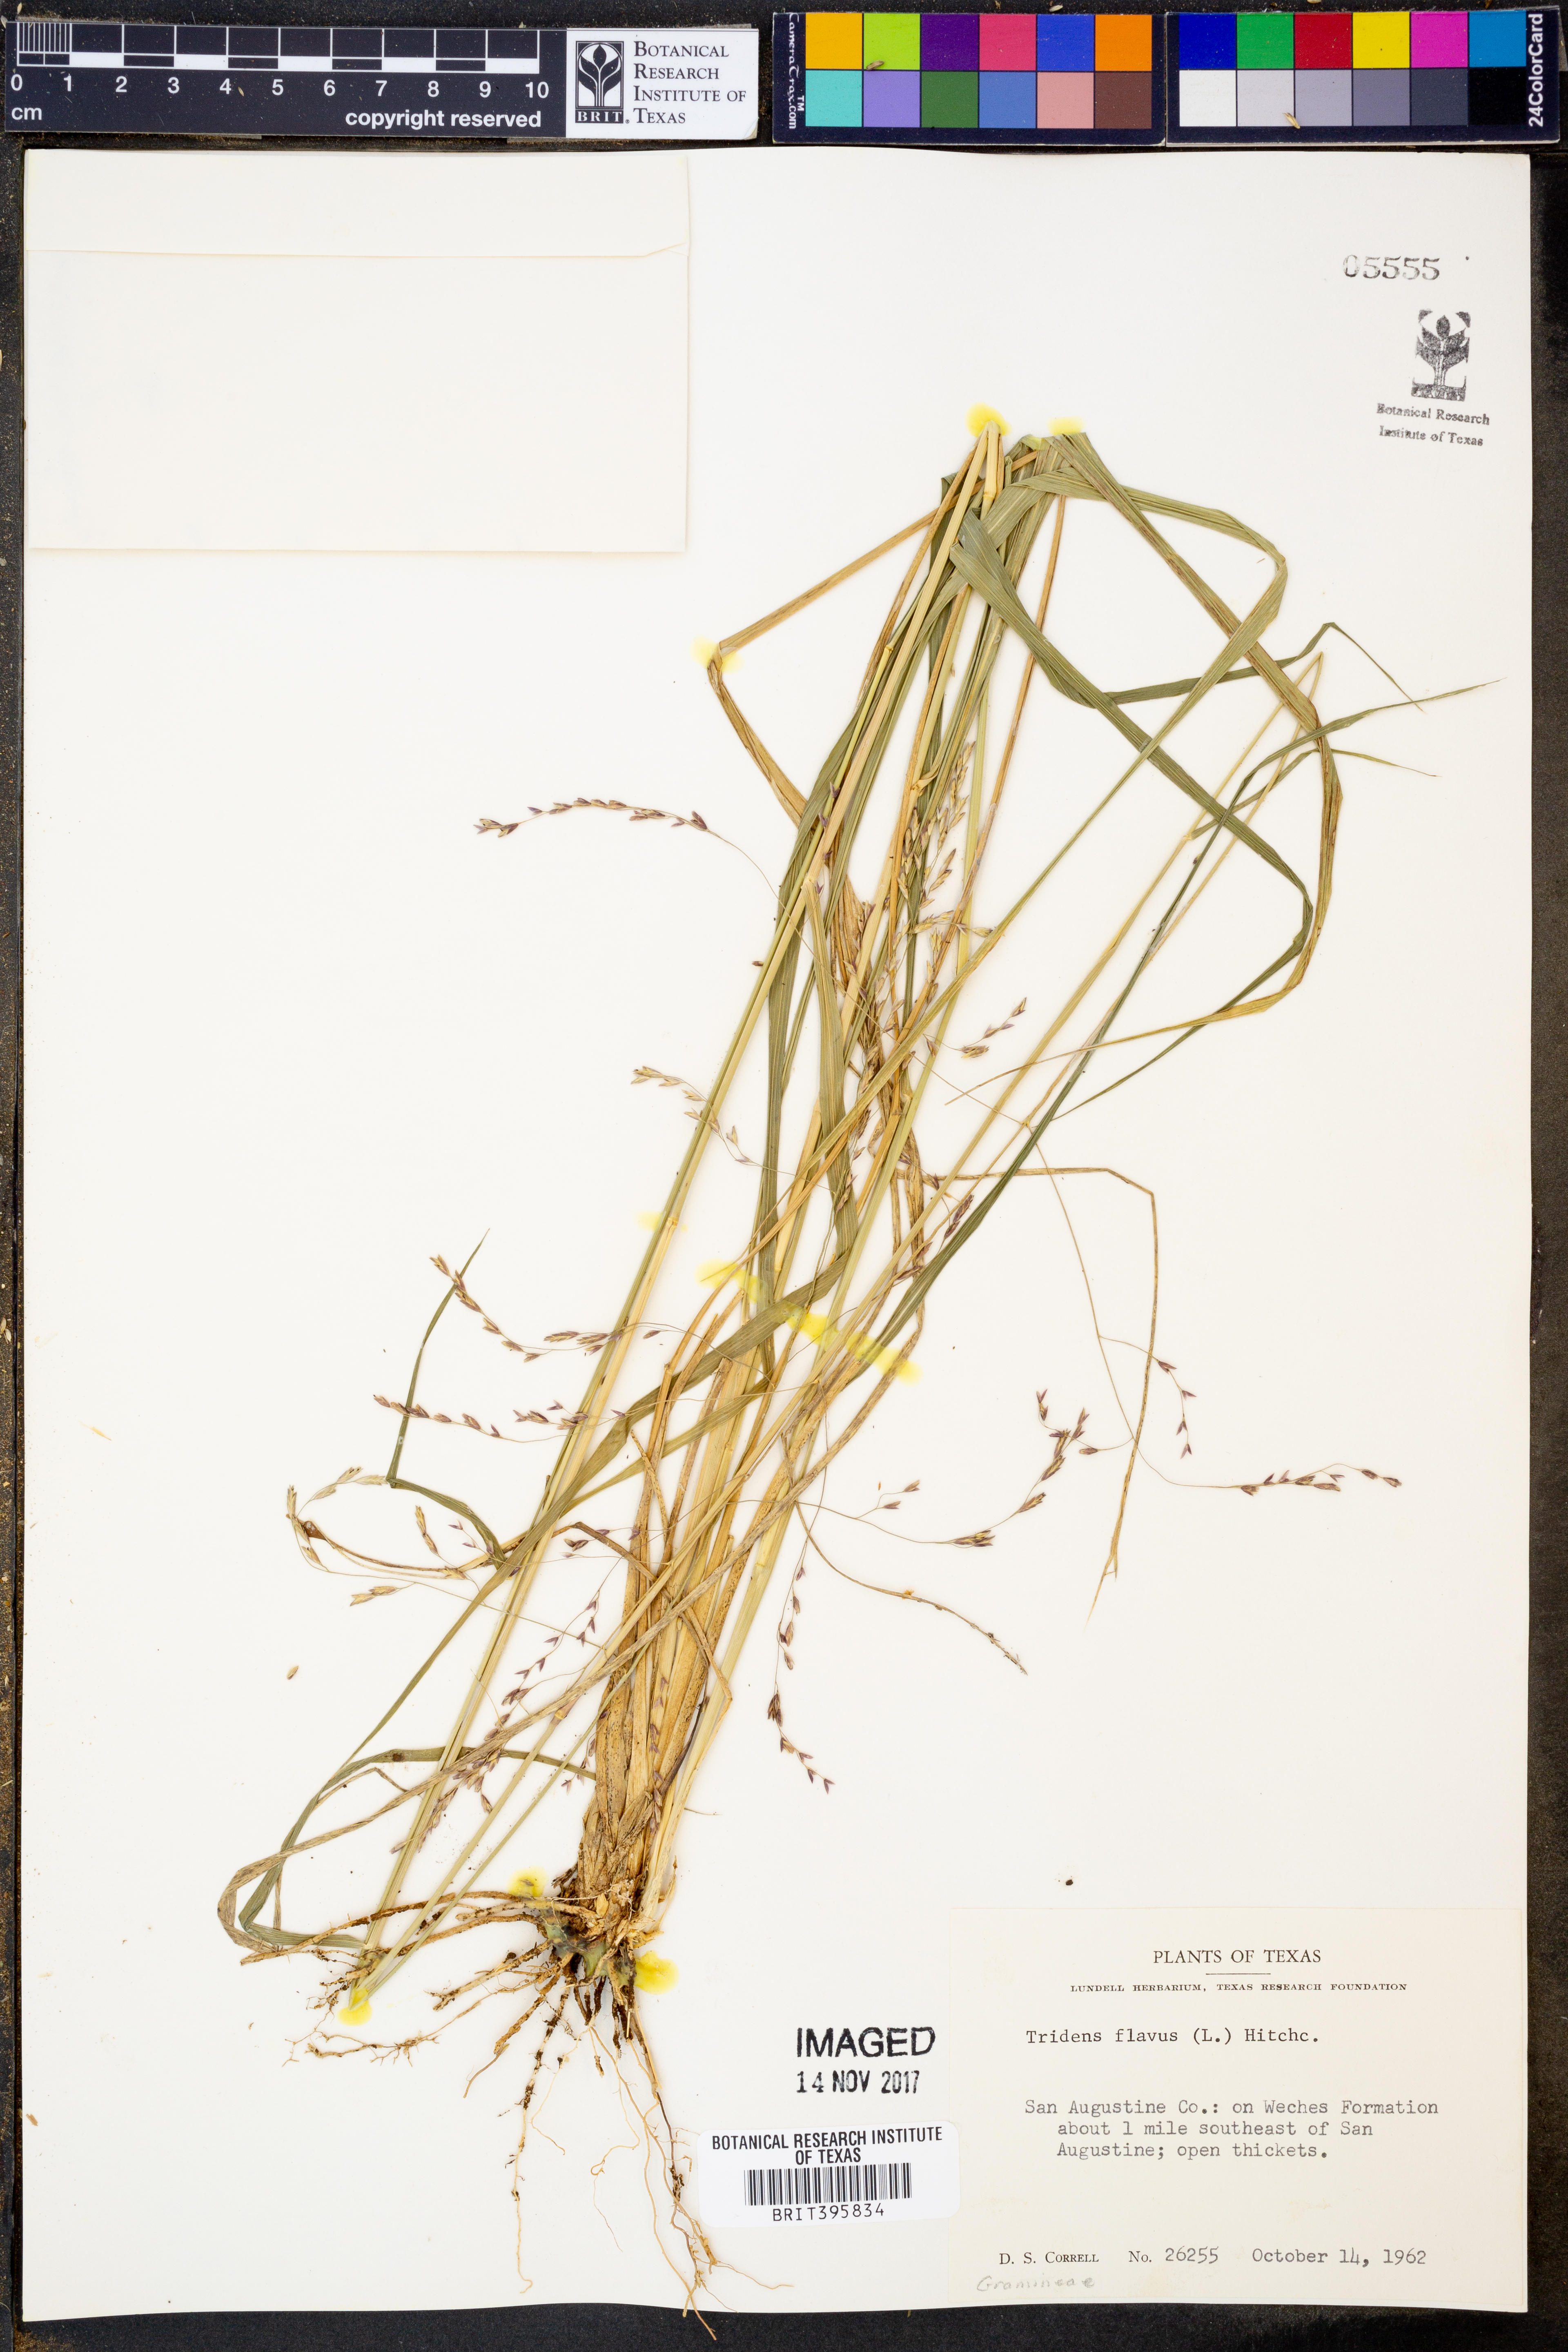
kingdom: Plantae
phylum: Tracheophyta
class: Liliopsida
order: Poales
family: Poaceae
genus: Tridens
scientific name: Tridens flavus
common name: Purpletop
